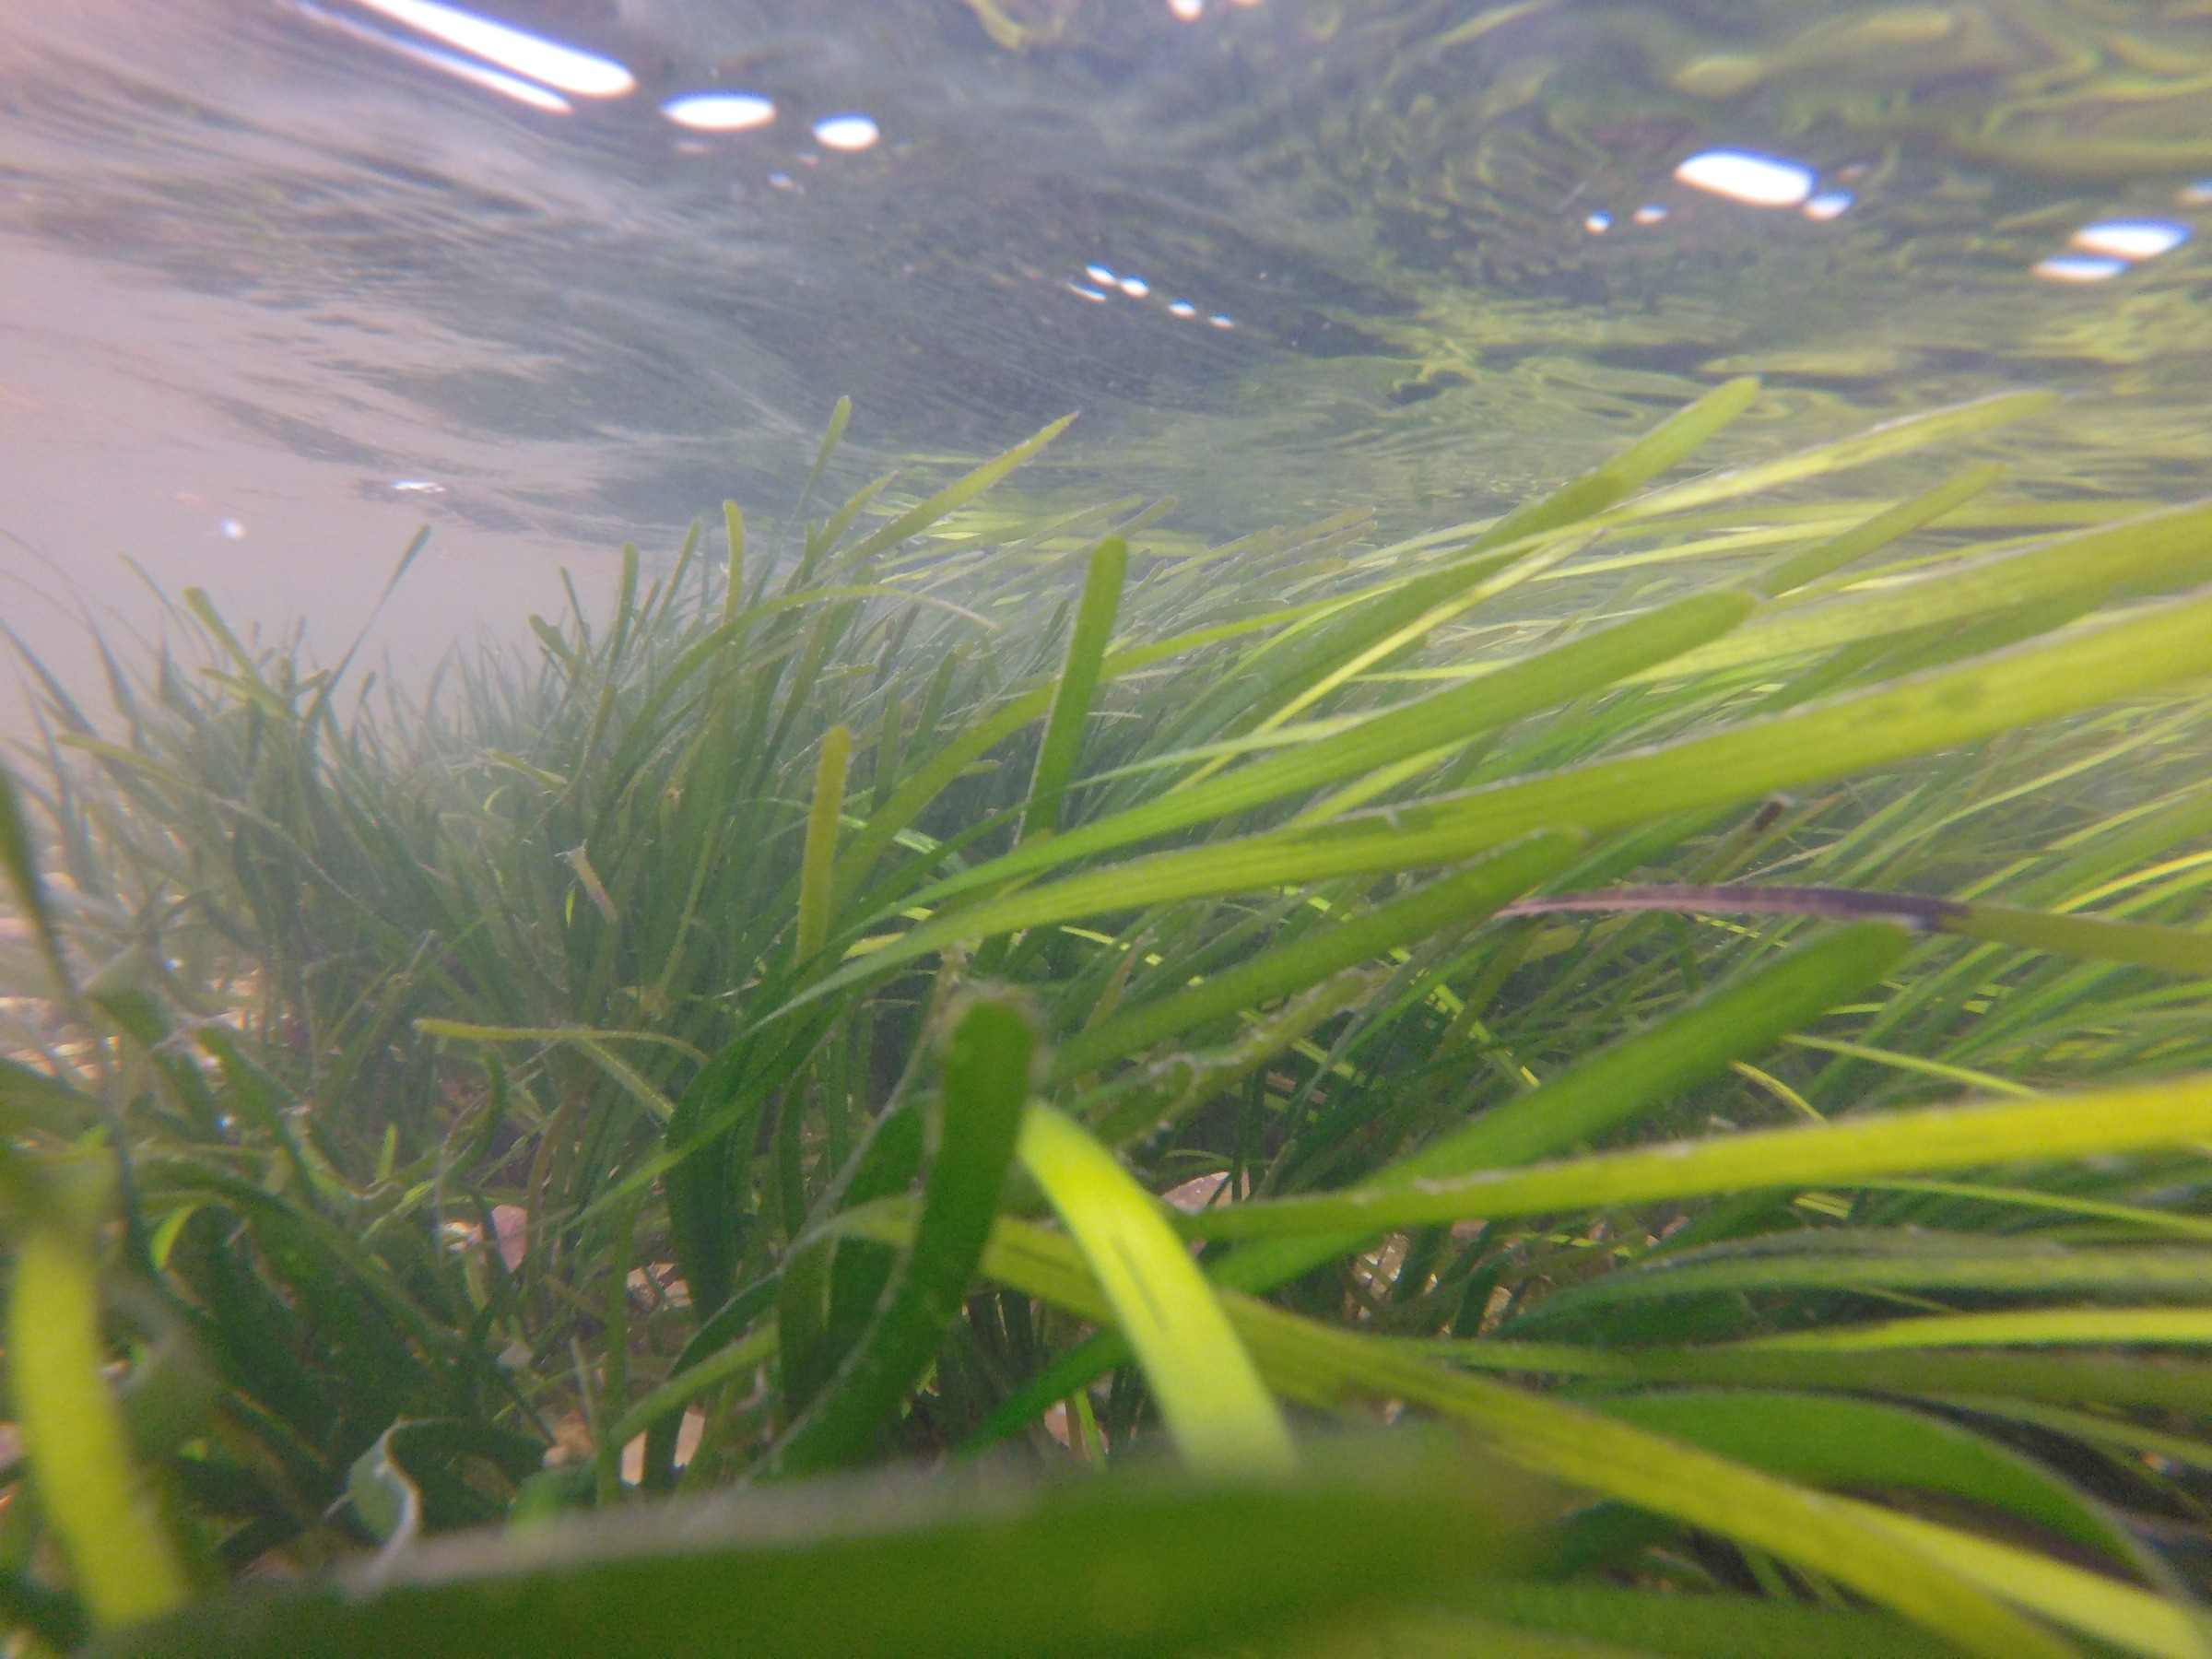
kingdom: Plantae
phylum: Tracheophyta
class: Liliopsida
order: Alismatales
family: Zosteraceae
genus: Zostera
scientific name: Zostera marina
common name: Eelgrass
